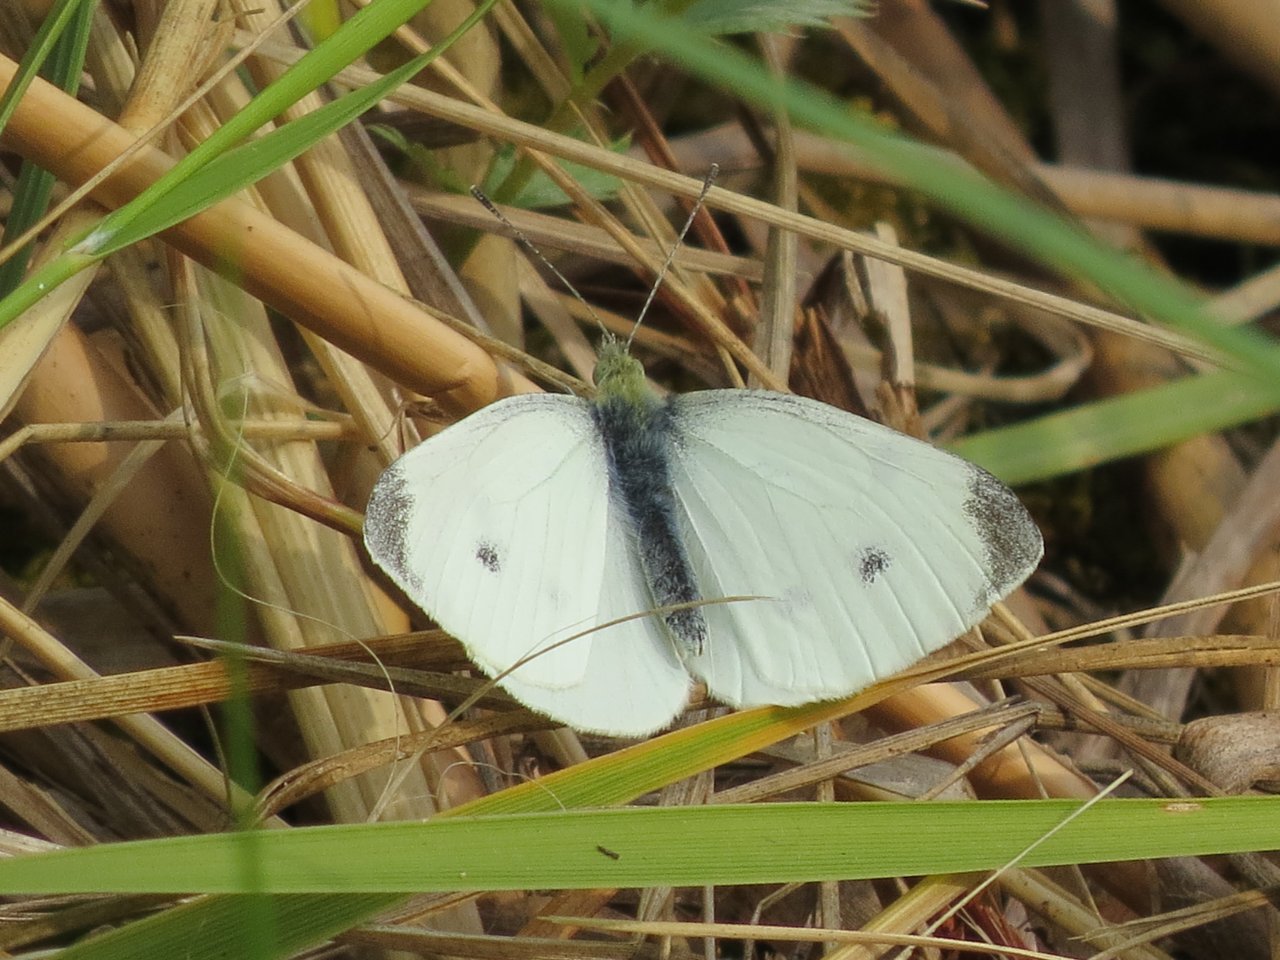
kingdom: Animalia
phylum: Arthropoda
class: Insecta
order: Lepidoptera
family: Pieridae
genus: Pieris
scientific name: Pieris rapae
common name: Cabbage White
